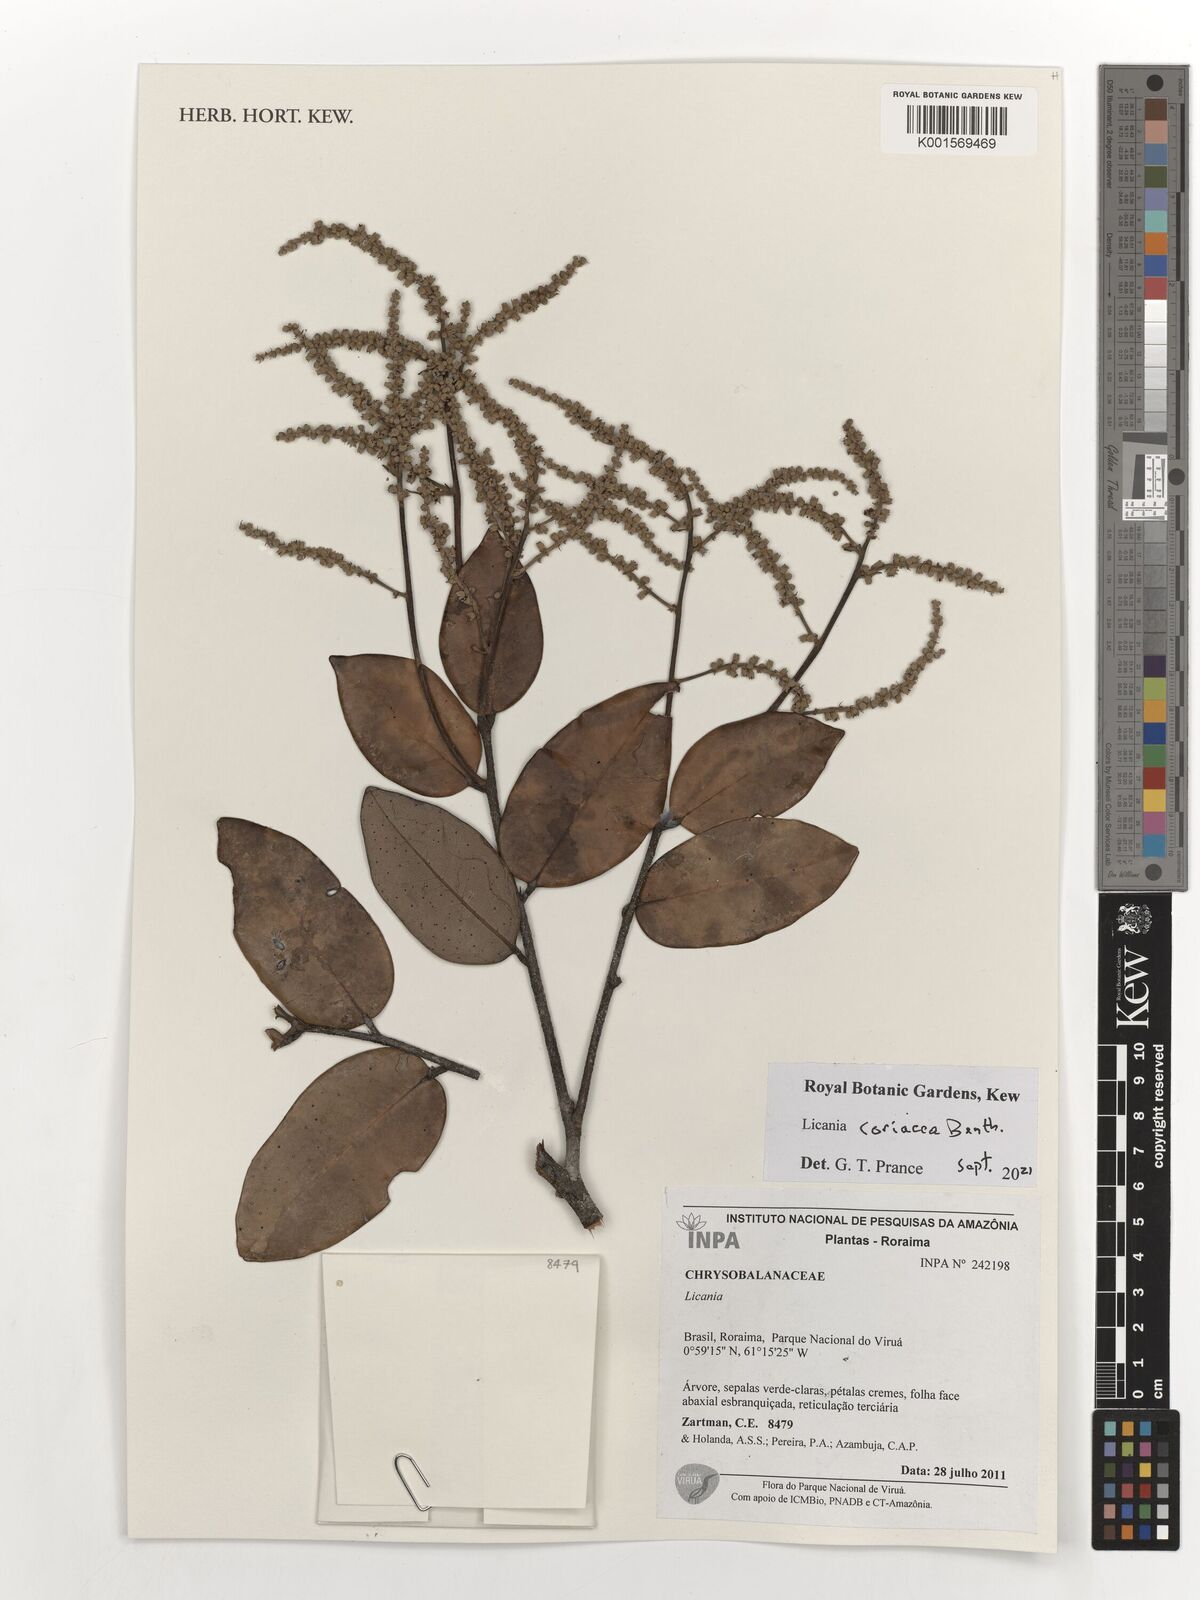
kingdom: Plantae
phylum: Tracheophyta
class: Magnoliopsida
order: Malpighiales
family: Chrysobalanaceae
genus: Licania
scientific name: Licania coriacea
